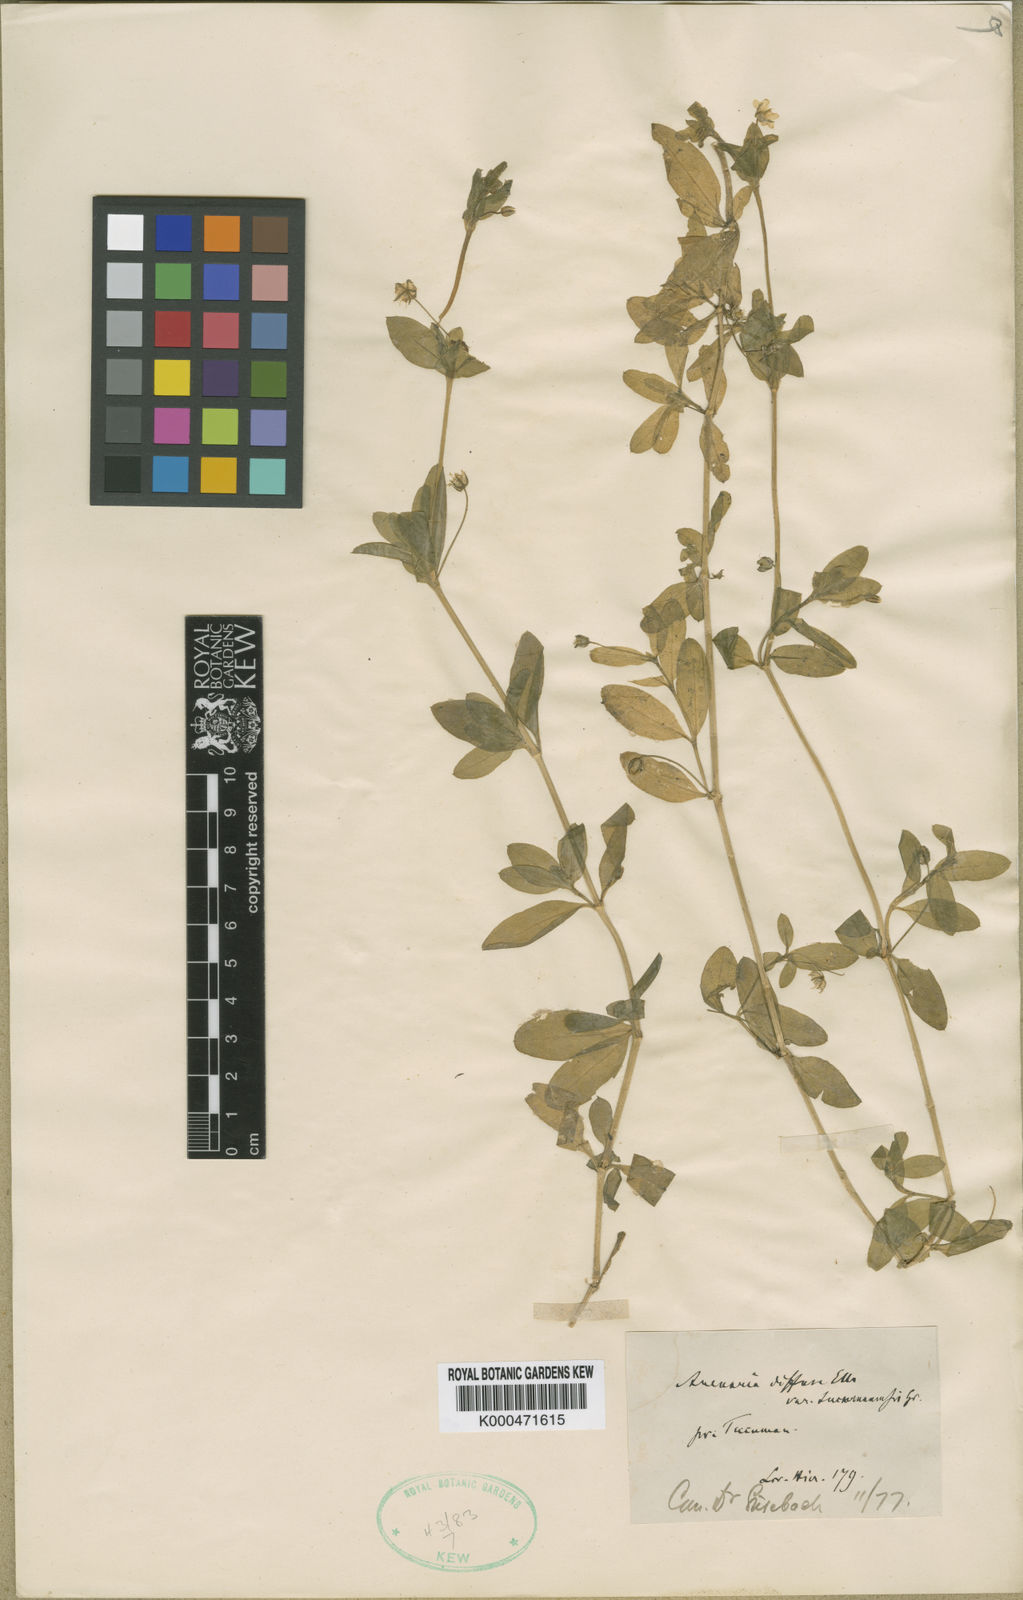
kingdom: Plantae
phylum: Tracheophyta
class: Magnoliopsida
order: Caryophyllales
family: Caryophyllaceae
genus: Arenaria
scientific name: Arenaria
